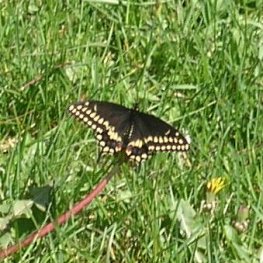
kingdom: Animalia
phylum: Arthropoda
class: Insecta
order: Lepidoptera
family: Papilionidae
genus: Papilio
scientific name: Papilio polyxenes
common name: Black Swallowtail
